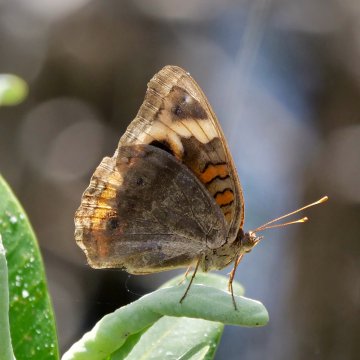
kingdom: Animalia
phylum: Arthropoda
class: Insecta
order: Lepidoptera
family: Nymphalidae
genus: Junonia
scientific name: Junonia evarete
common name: Mangrove Buckeye
